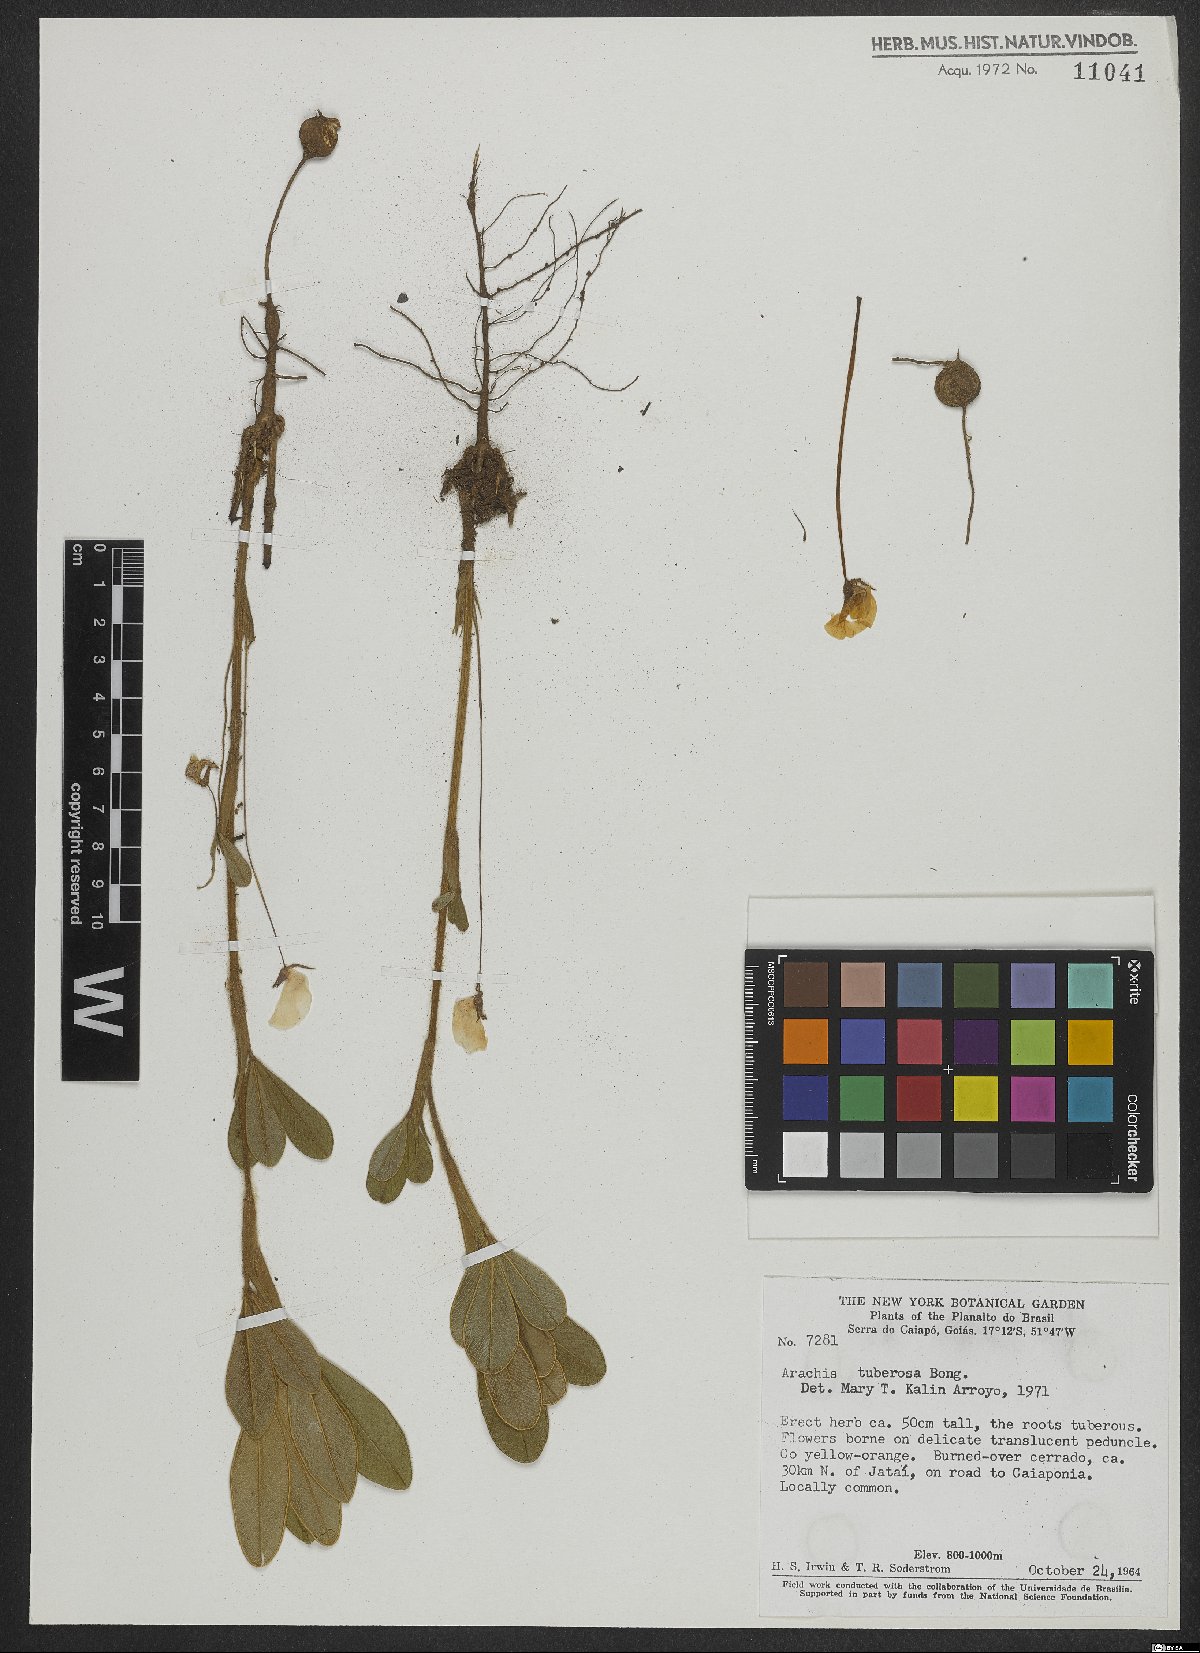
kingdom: Plantae
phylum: Tracheophyta
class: Magnoliopsida
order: Fabales
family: Fabaceae
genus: Arachis
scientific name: Arachis tuberosa
